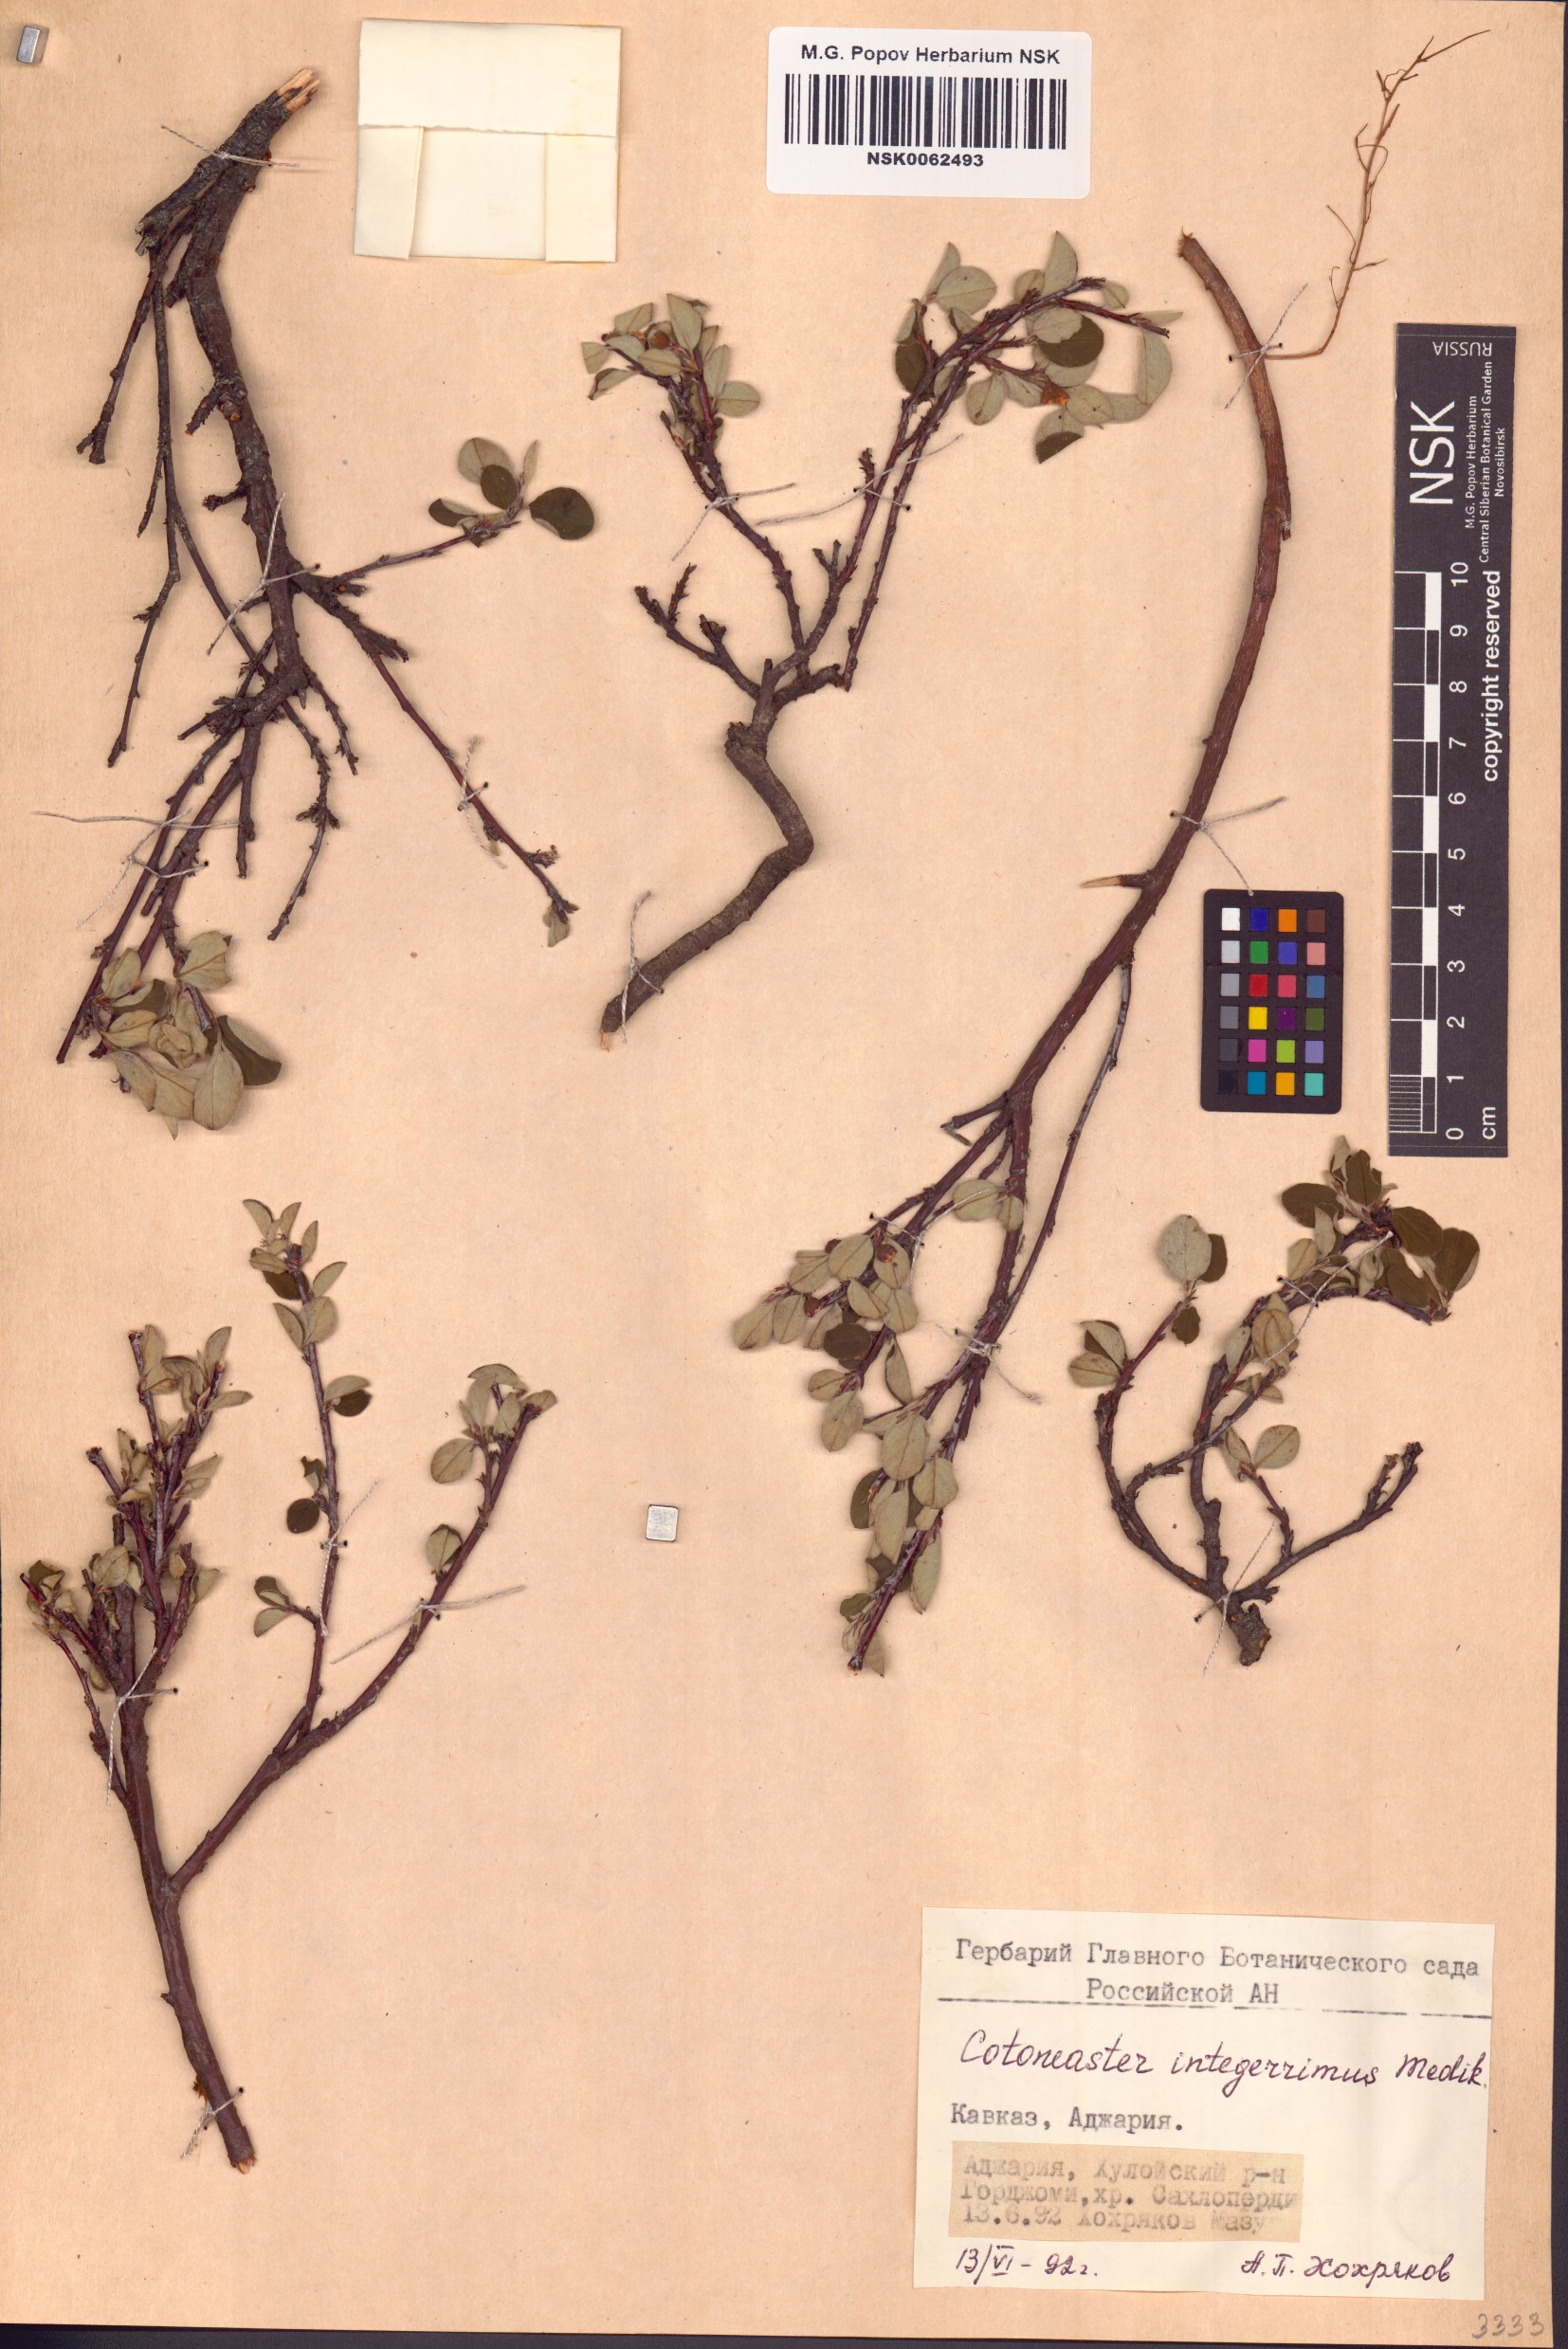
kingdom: Plantae
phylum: Tracheophyta
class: Magnoliopsida
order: Rosales
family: Rosaceae
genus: Cotoneaster
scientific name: Cotoneaster integerrimus
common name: Wild cotoneaster
